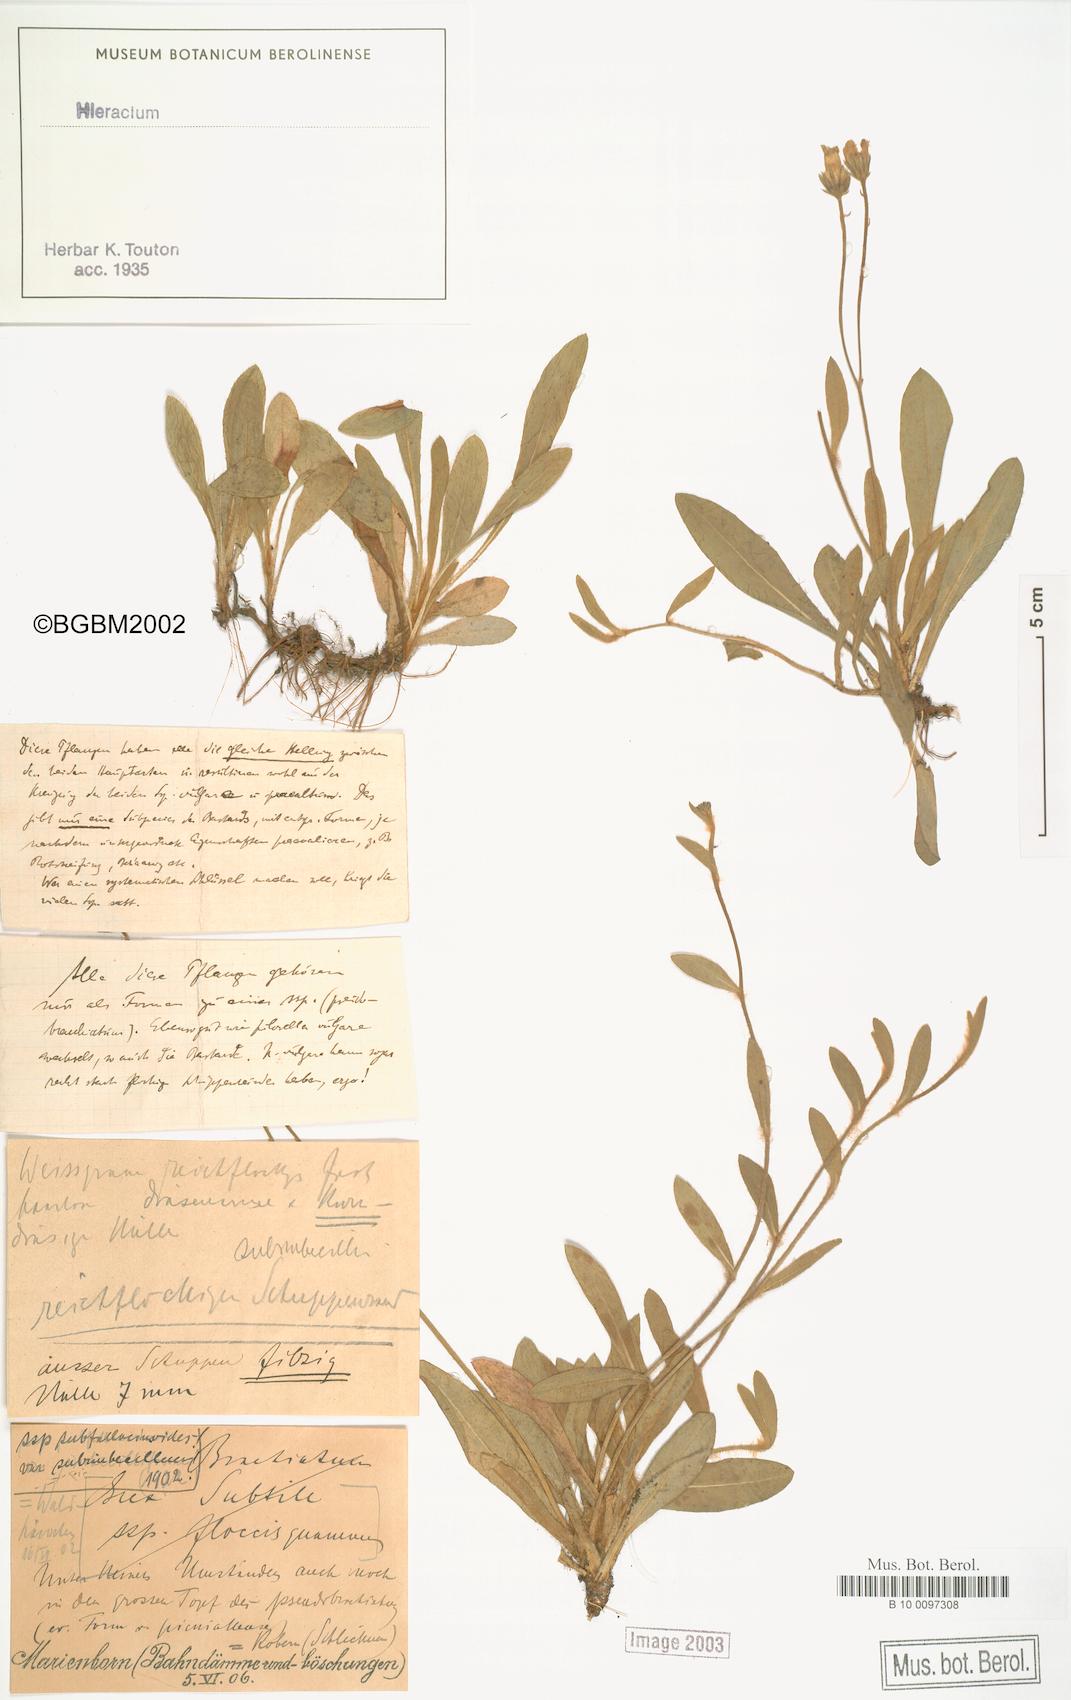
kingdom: Plantae
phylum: Tracheophyta
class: Magnoliopsida
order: Asterales
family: Asteraceae
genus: Pilosella
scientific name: Pilosella acutifolia
